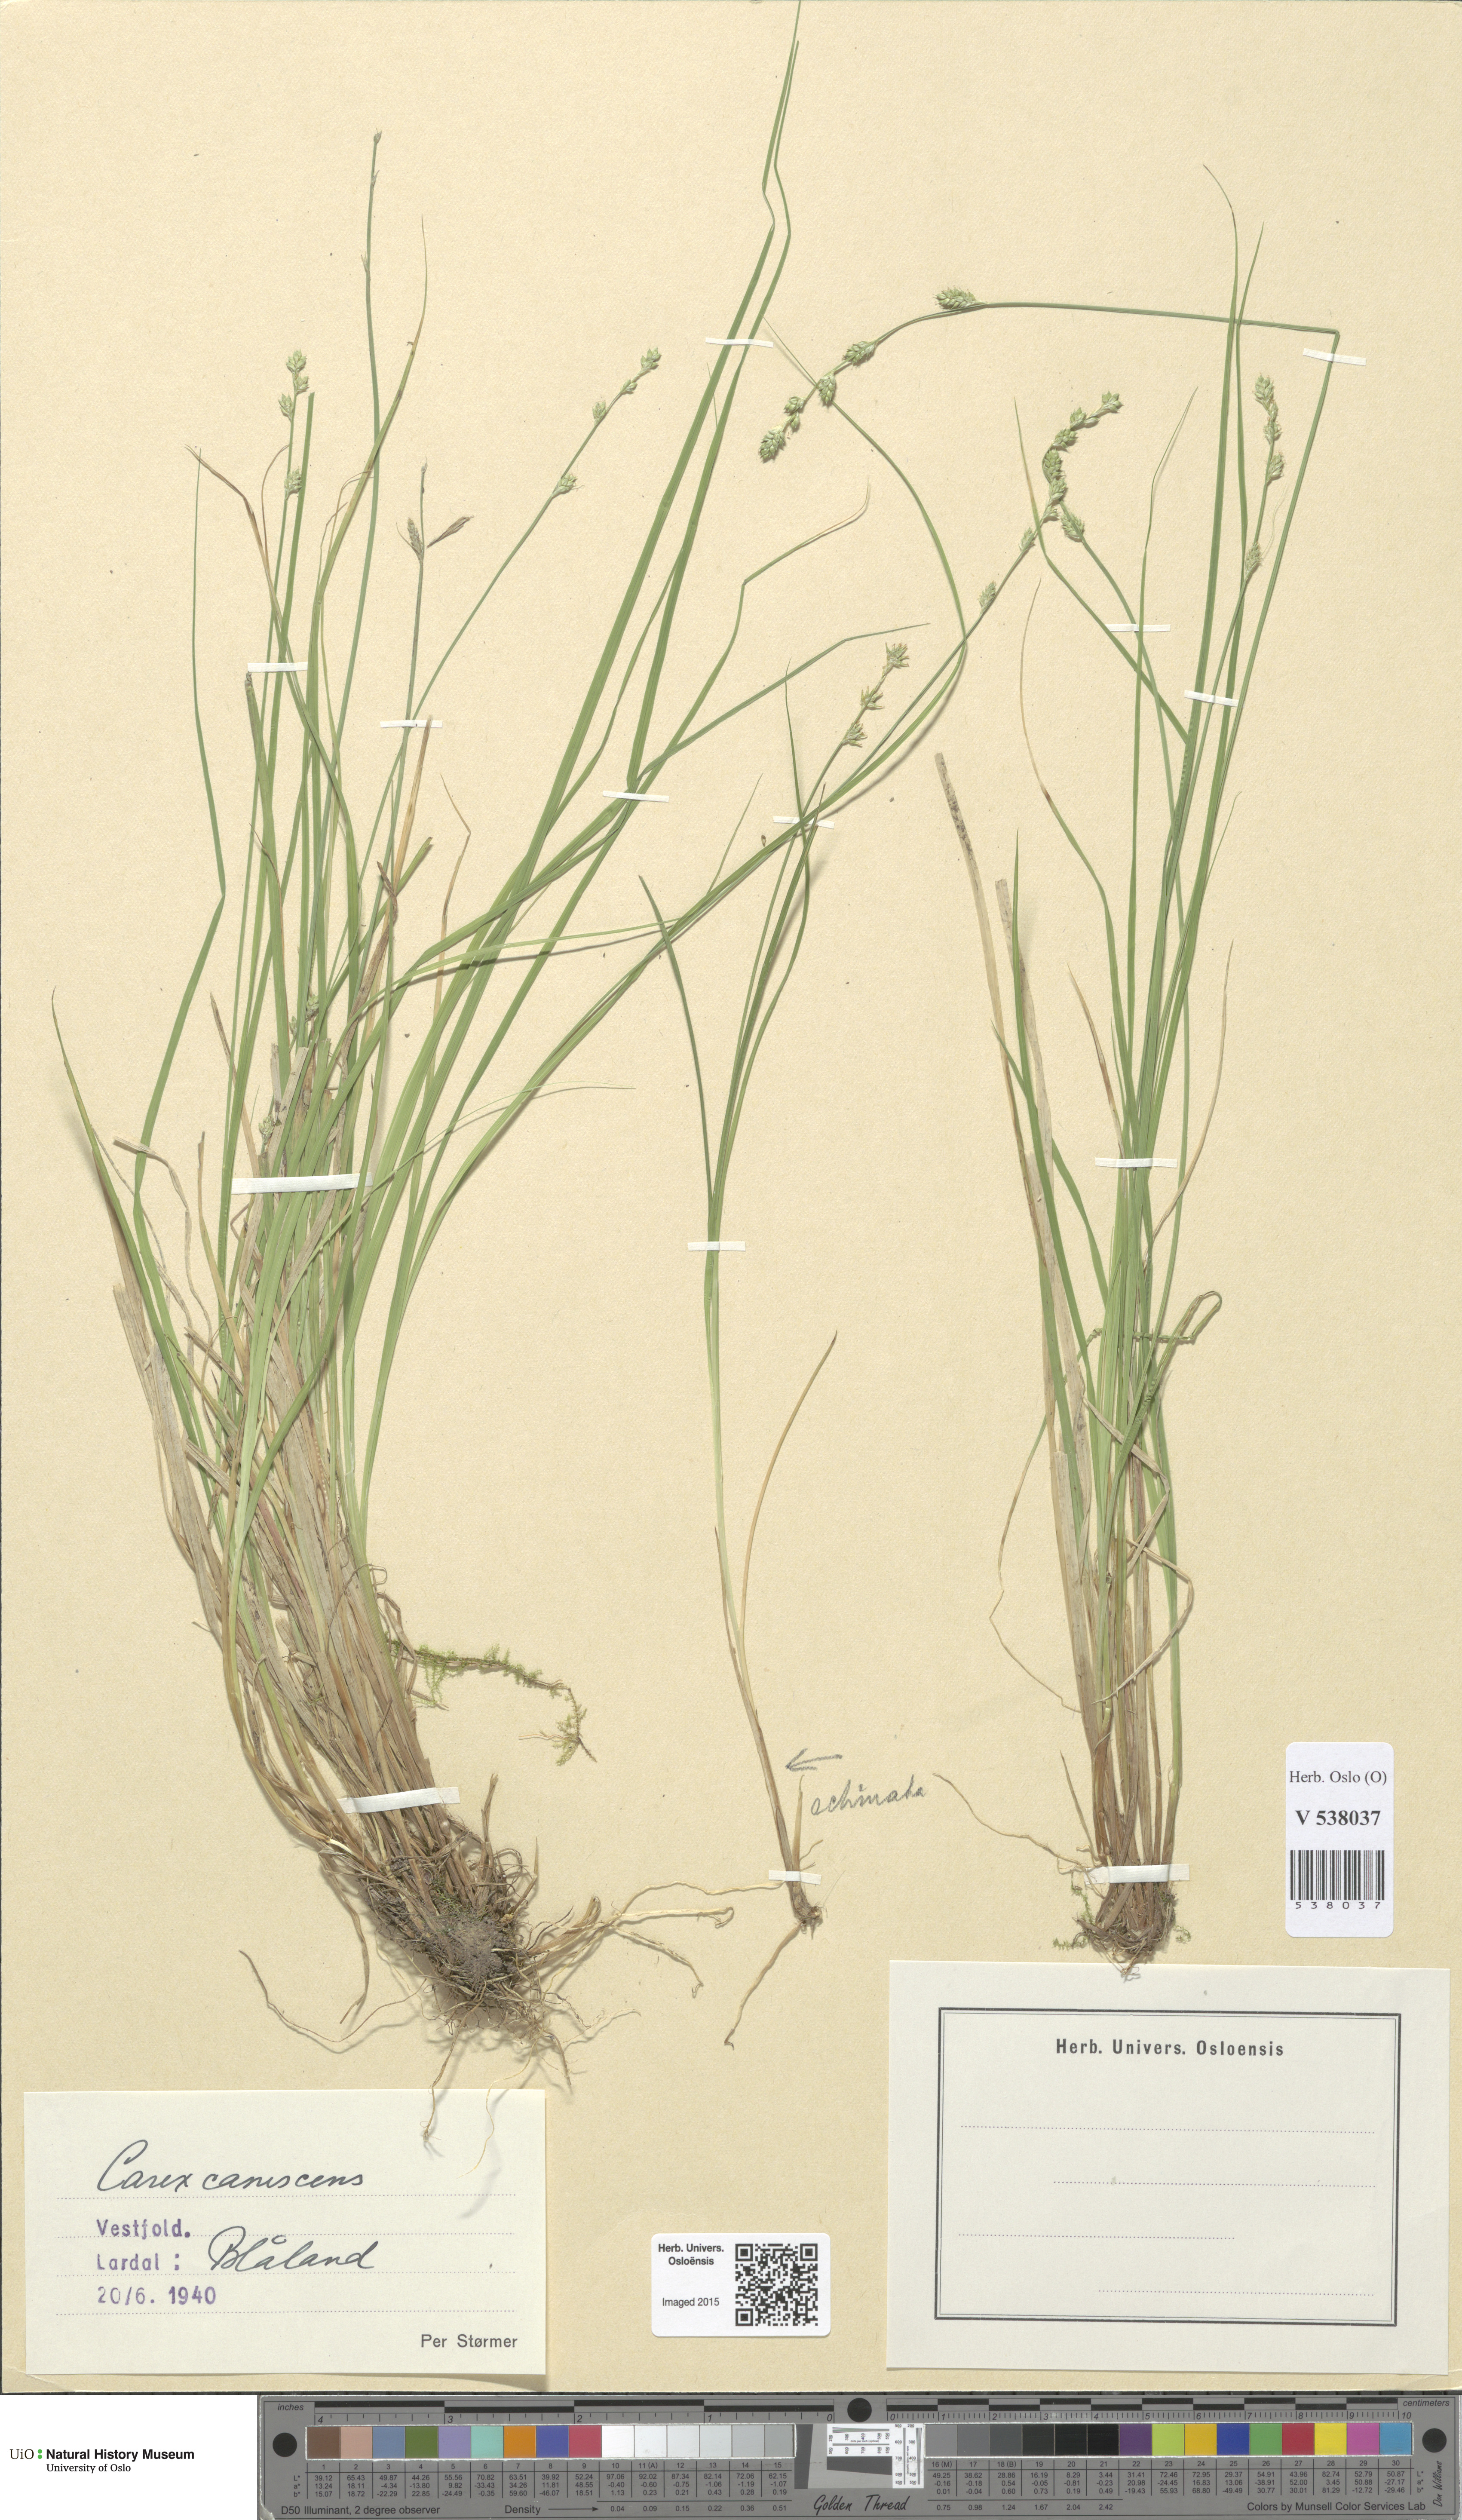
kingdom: Plantae
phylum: Tracheophyta
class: Liliopsida
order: Poales
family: Cyperaceae
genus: Carex
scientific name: Carex canescens
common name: White sedge
